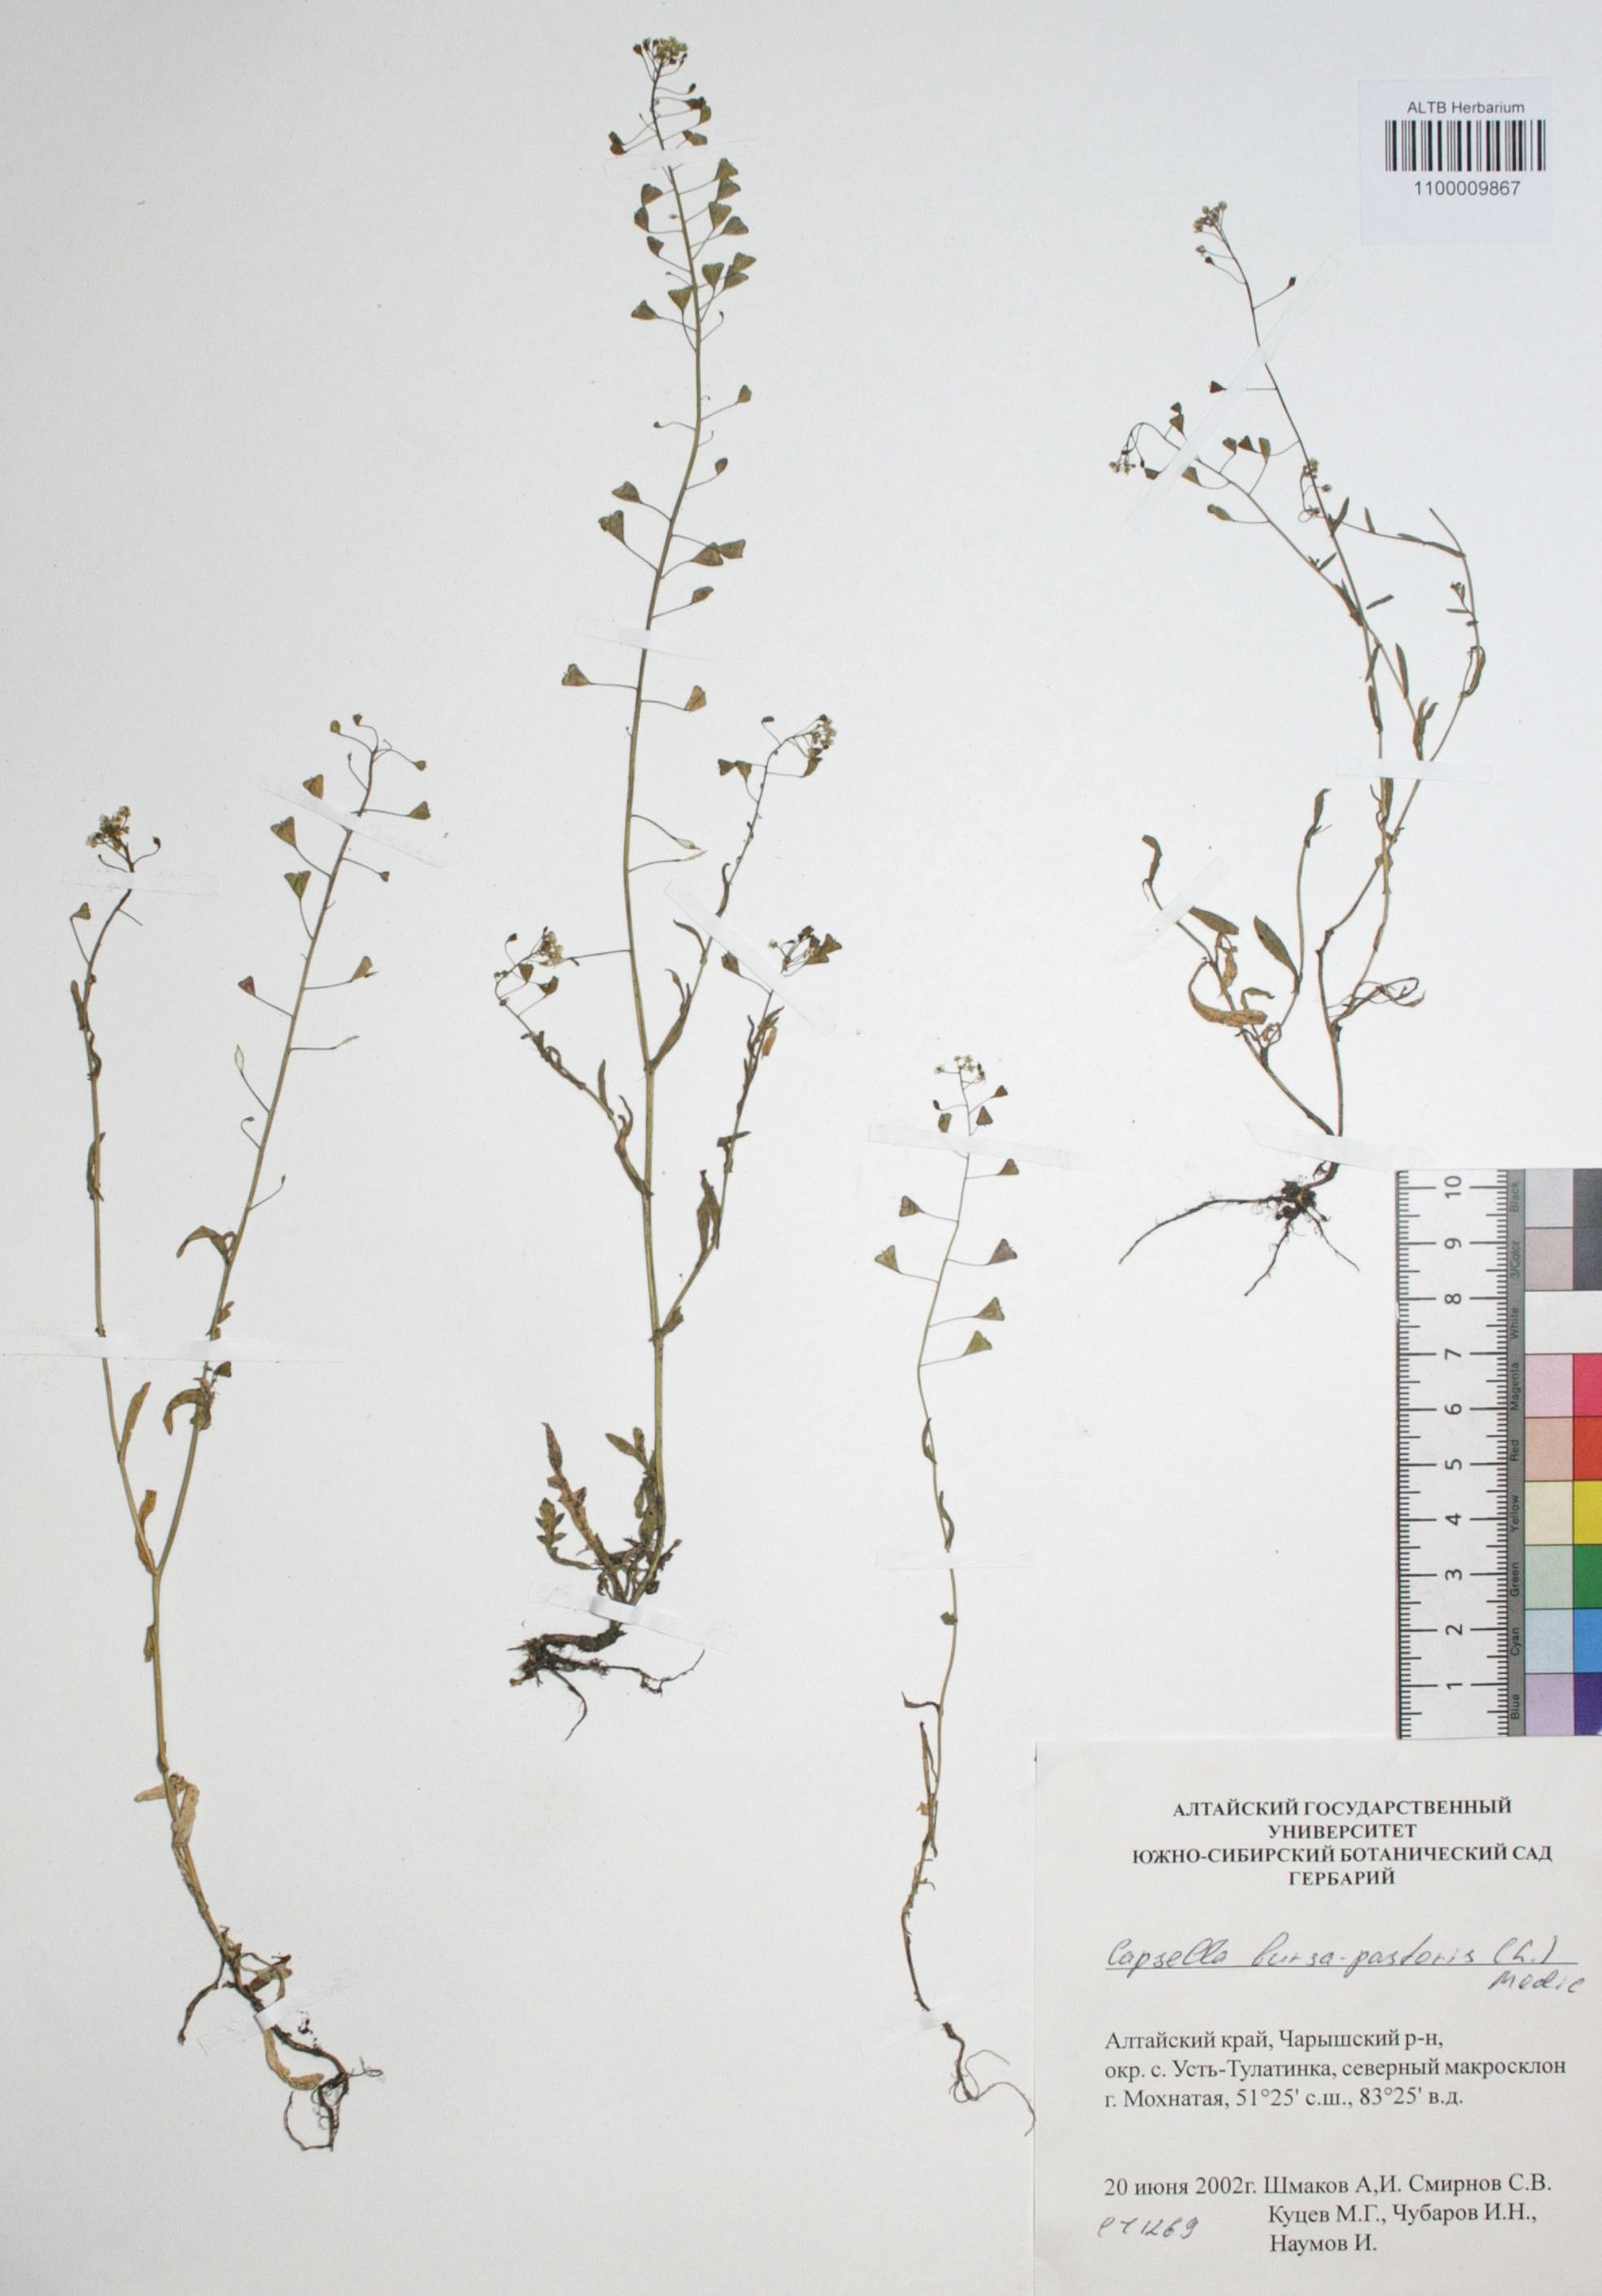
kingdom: Plantae
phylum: Tracheophyta
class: Magnoliopsida
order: Brassicales
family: Brassicaceae
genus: Capsella
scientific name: Capsella bursa-pastoris
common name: Shepherd's purse
